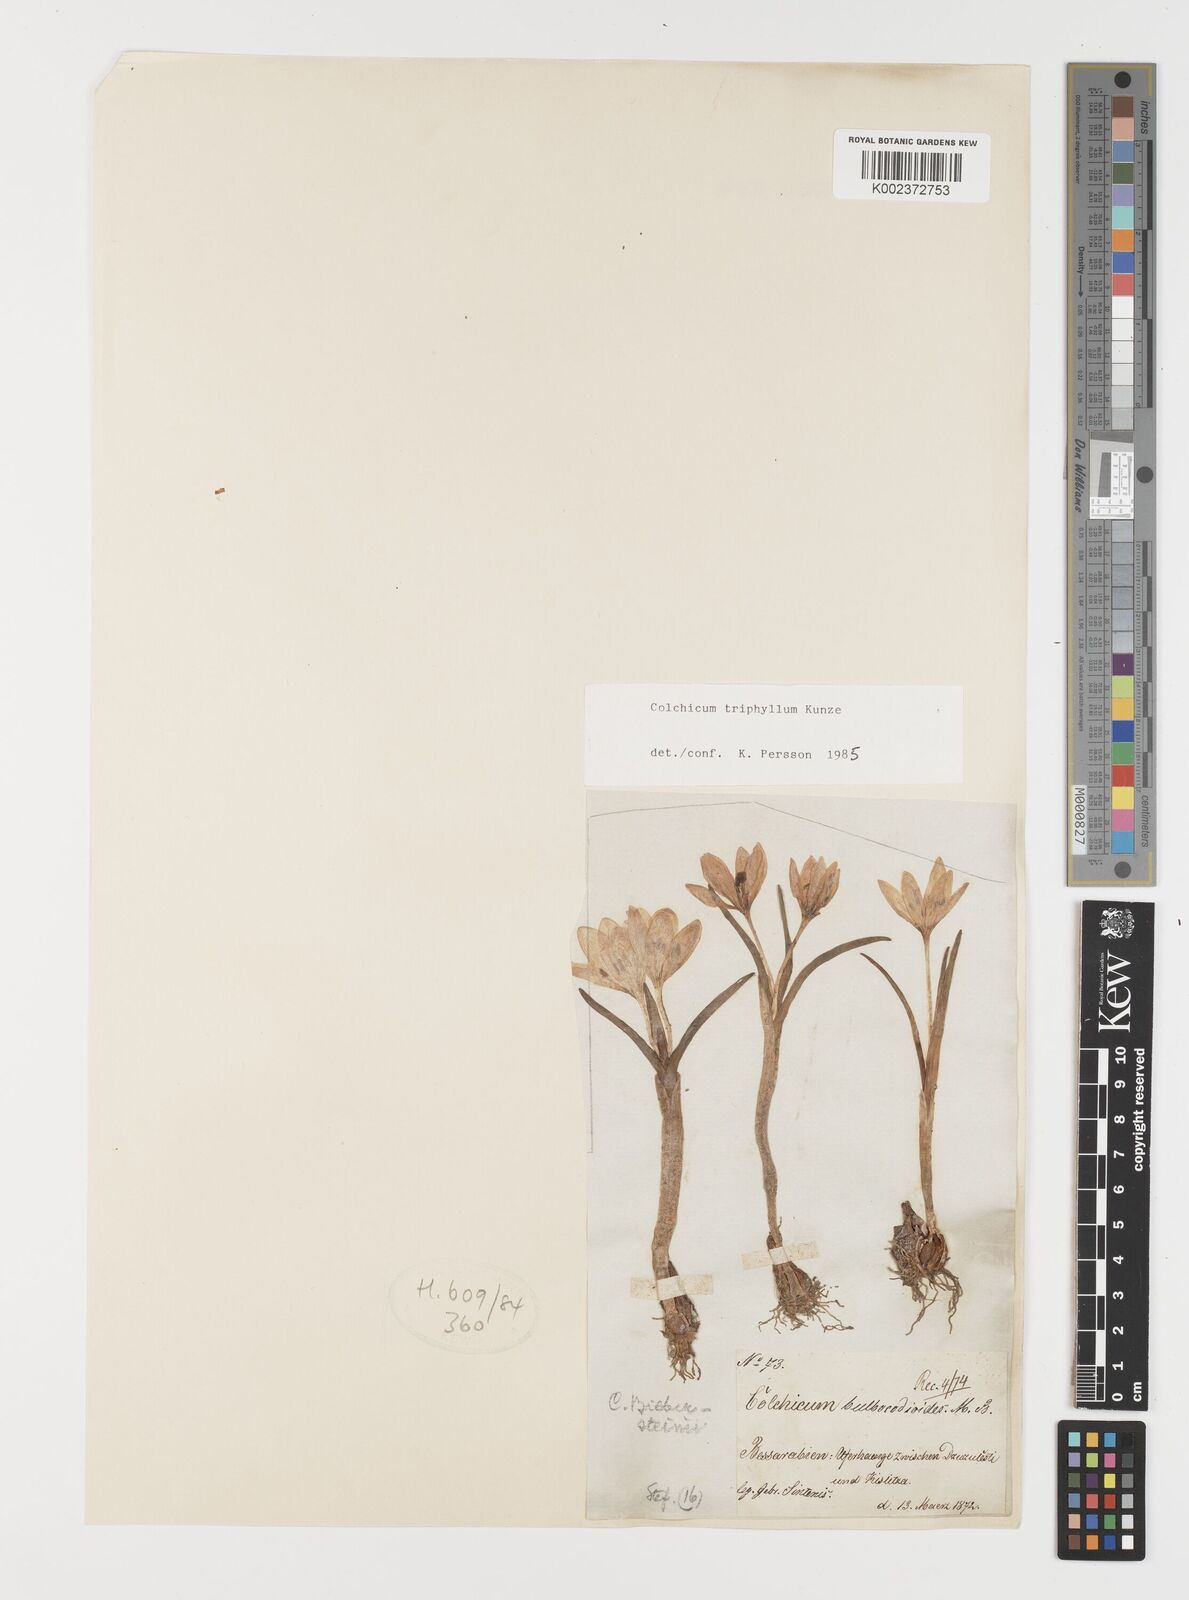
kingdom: Plantae
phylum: Tracheophyta
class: Liliopsida
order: Liliales
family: Colchicaceae
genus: Colchicum
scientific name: Colchicum triphyllum
